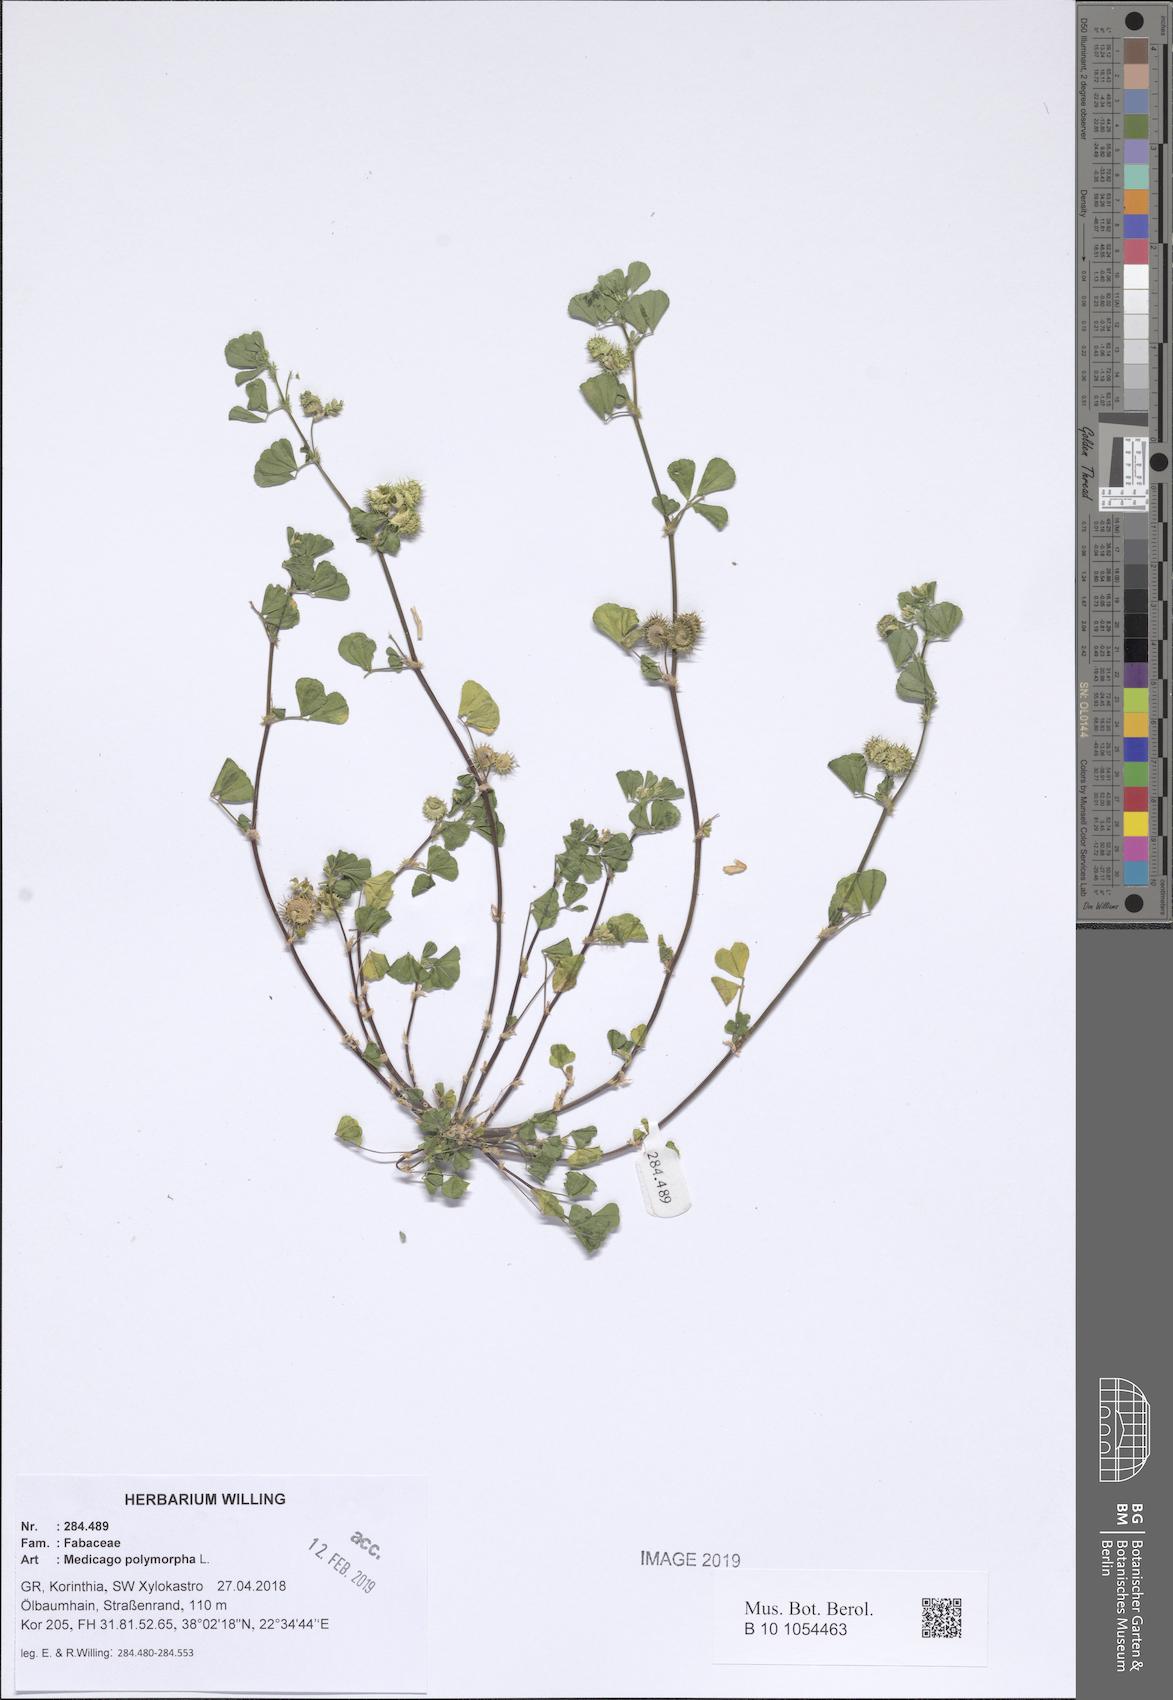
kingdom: Plantae
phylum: Tracheophyta
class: Magnoliopsida
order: Fabales
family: Fabaceae
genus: Medicago
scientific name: Medicago polymorpha
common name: Burclover
